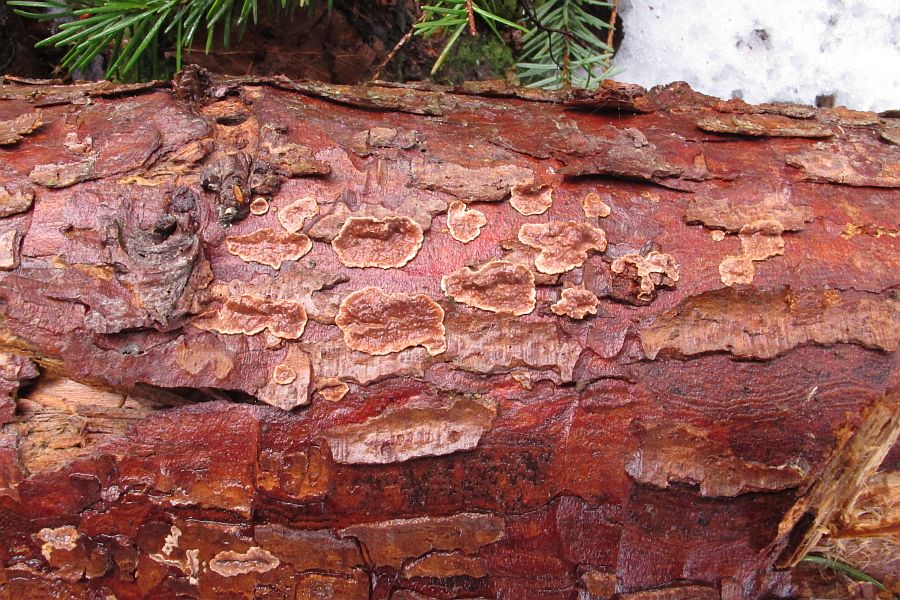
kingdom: Fungi
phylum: Basidiomycota
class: Agaricomycetes
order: Russulales
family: Echinodontiaceae
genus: Amylostereum
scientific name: Amylostereum chailletii
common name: gran-lædersvamp
